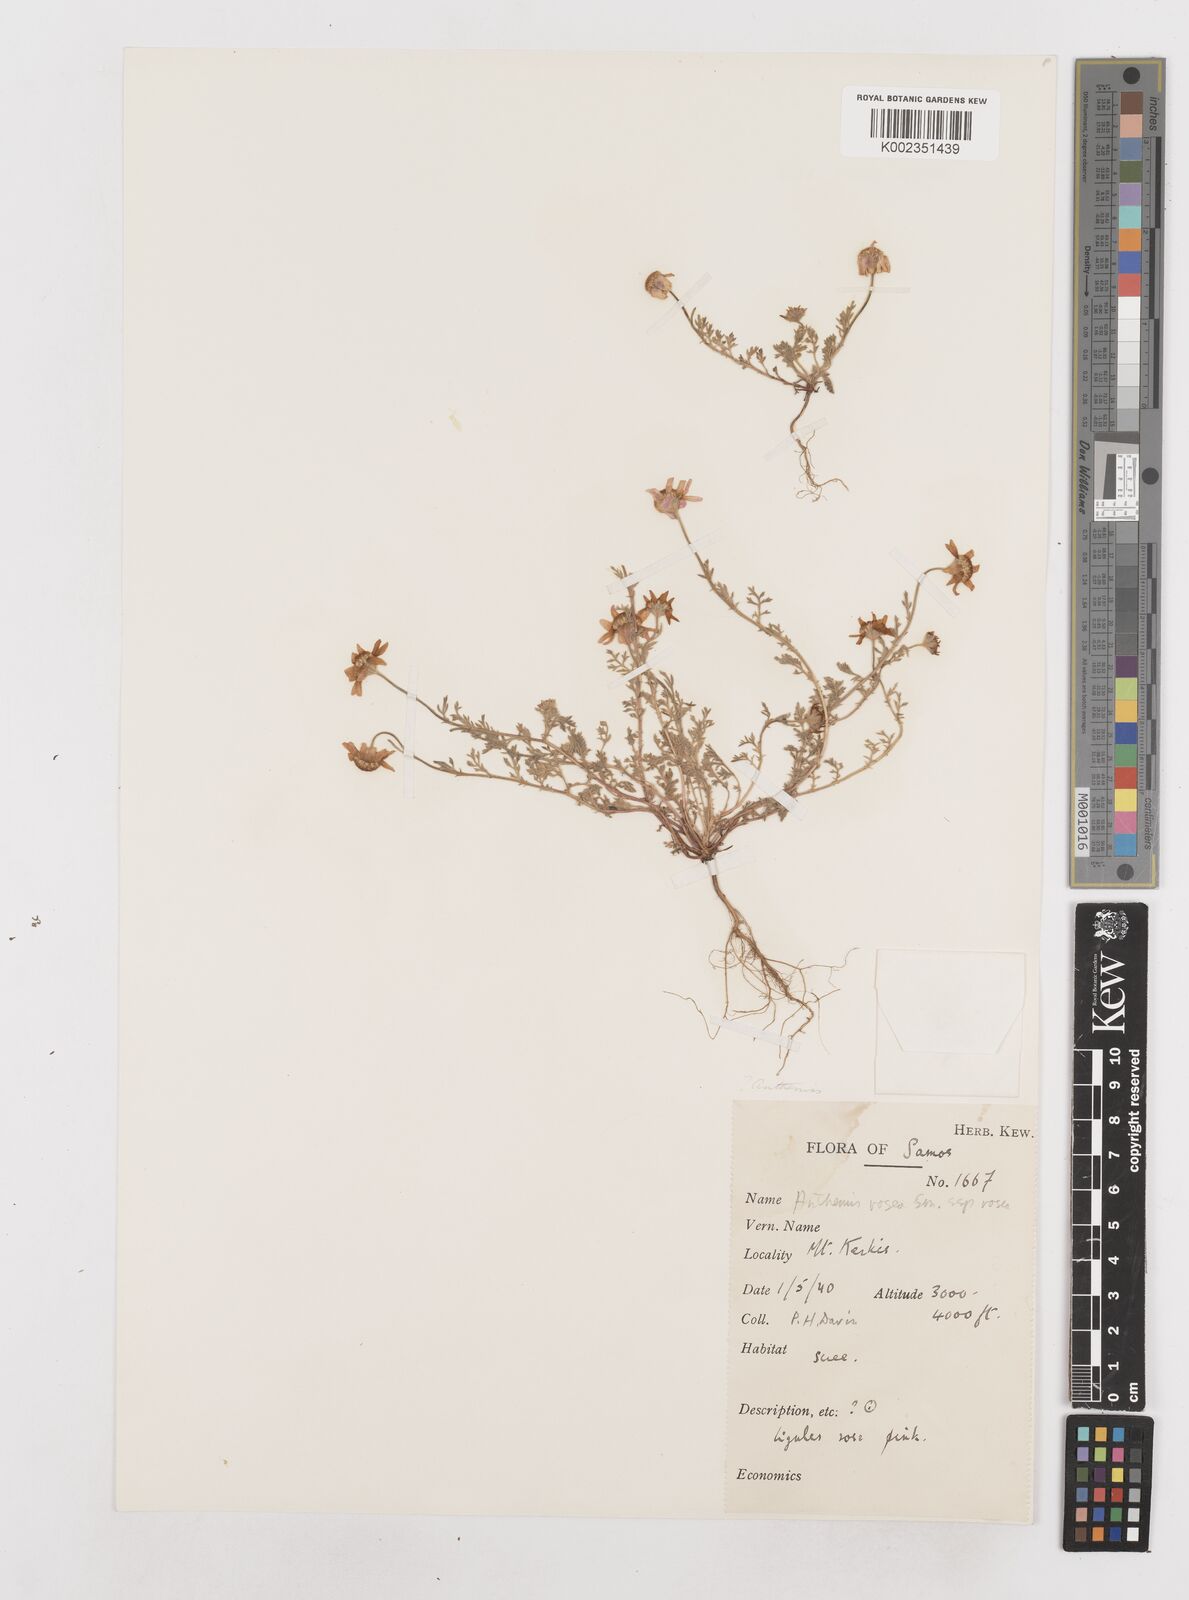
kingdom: Plantae
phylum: Tracheophyta
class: Magnoliopsida
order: Asterales
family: Asteraceae
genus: Anthemis
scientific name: Anthemis rosea
